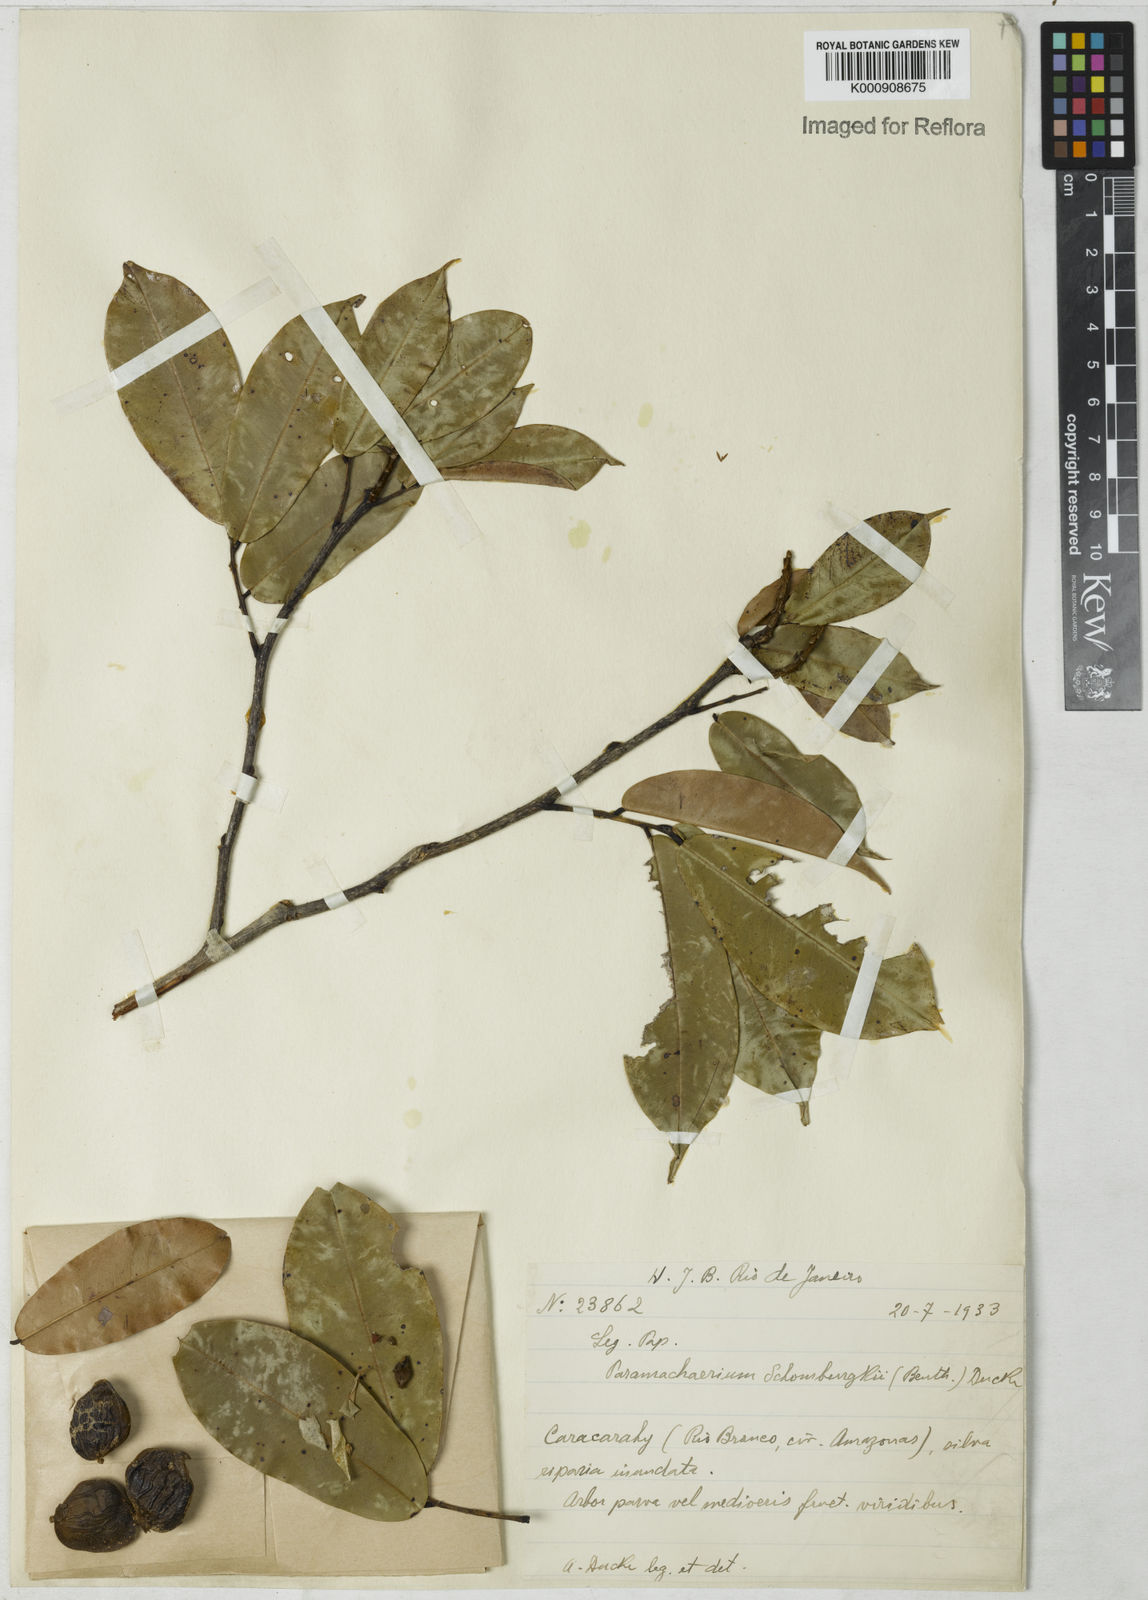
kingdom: Plantae
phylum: Tracheophyta
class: Magnoliopsida
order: Fabales
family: Fabaceae
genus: Paramachaerium
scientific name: Paramachaerium schomburgkii
